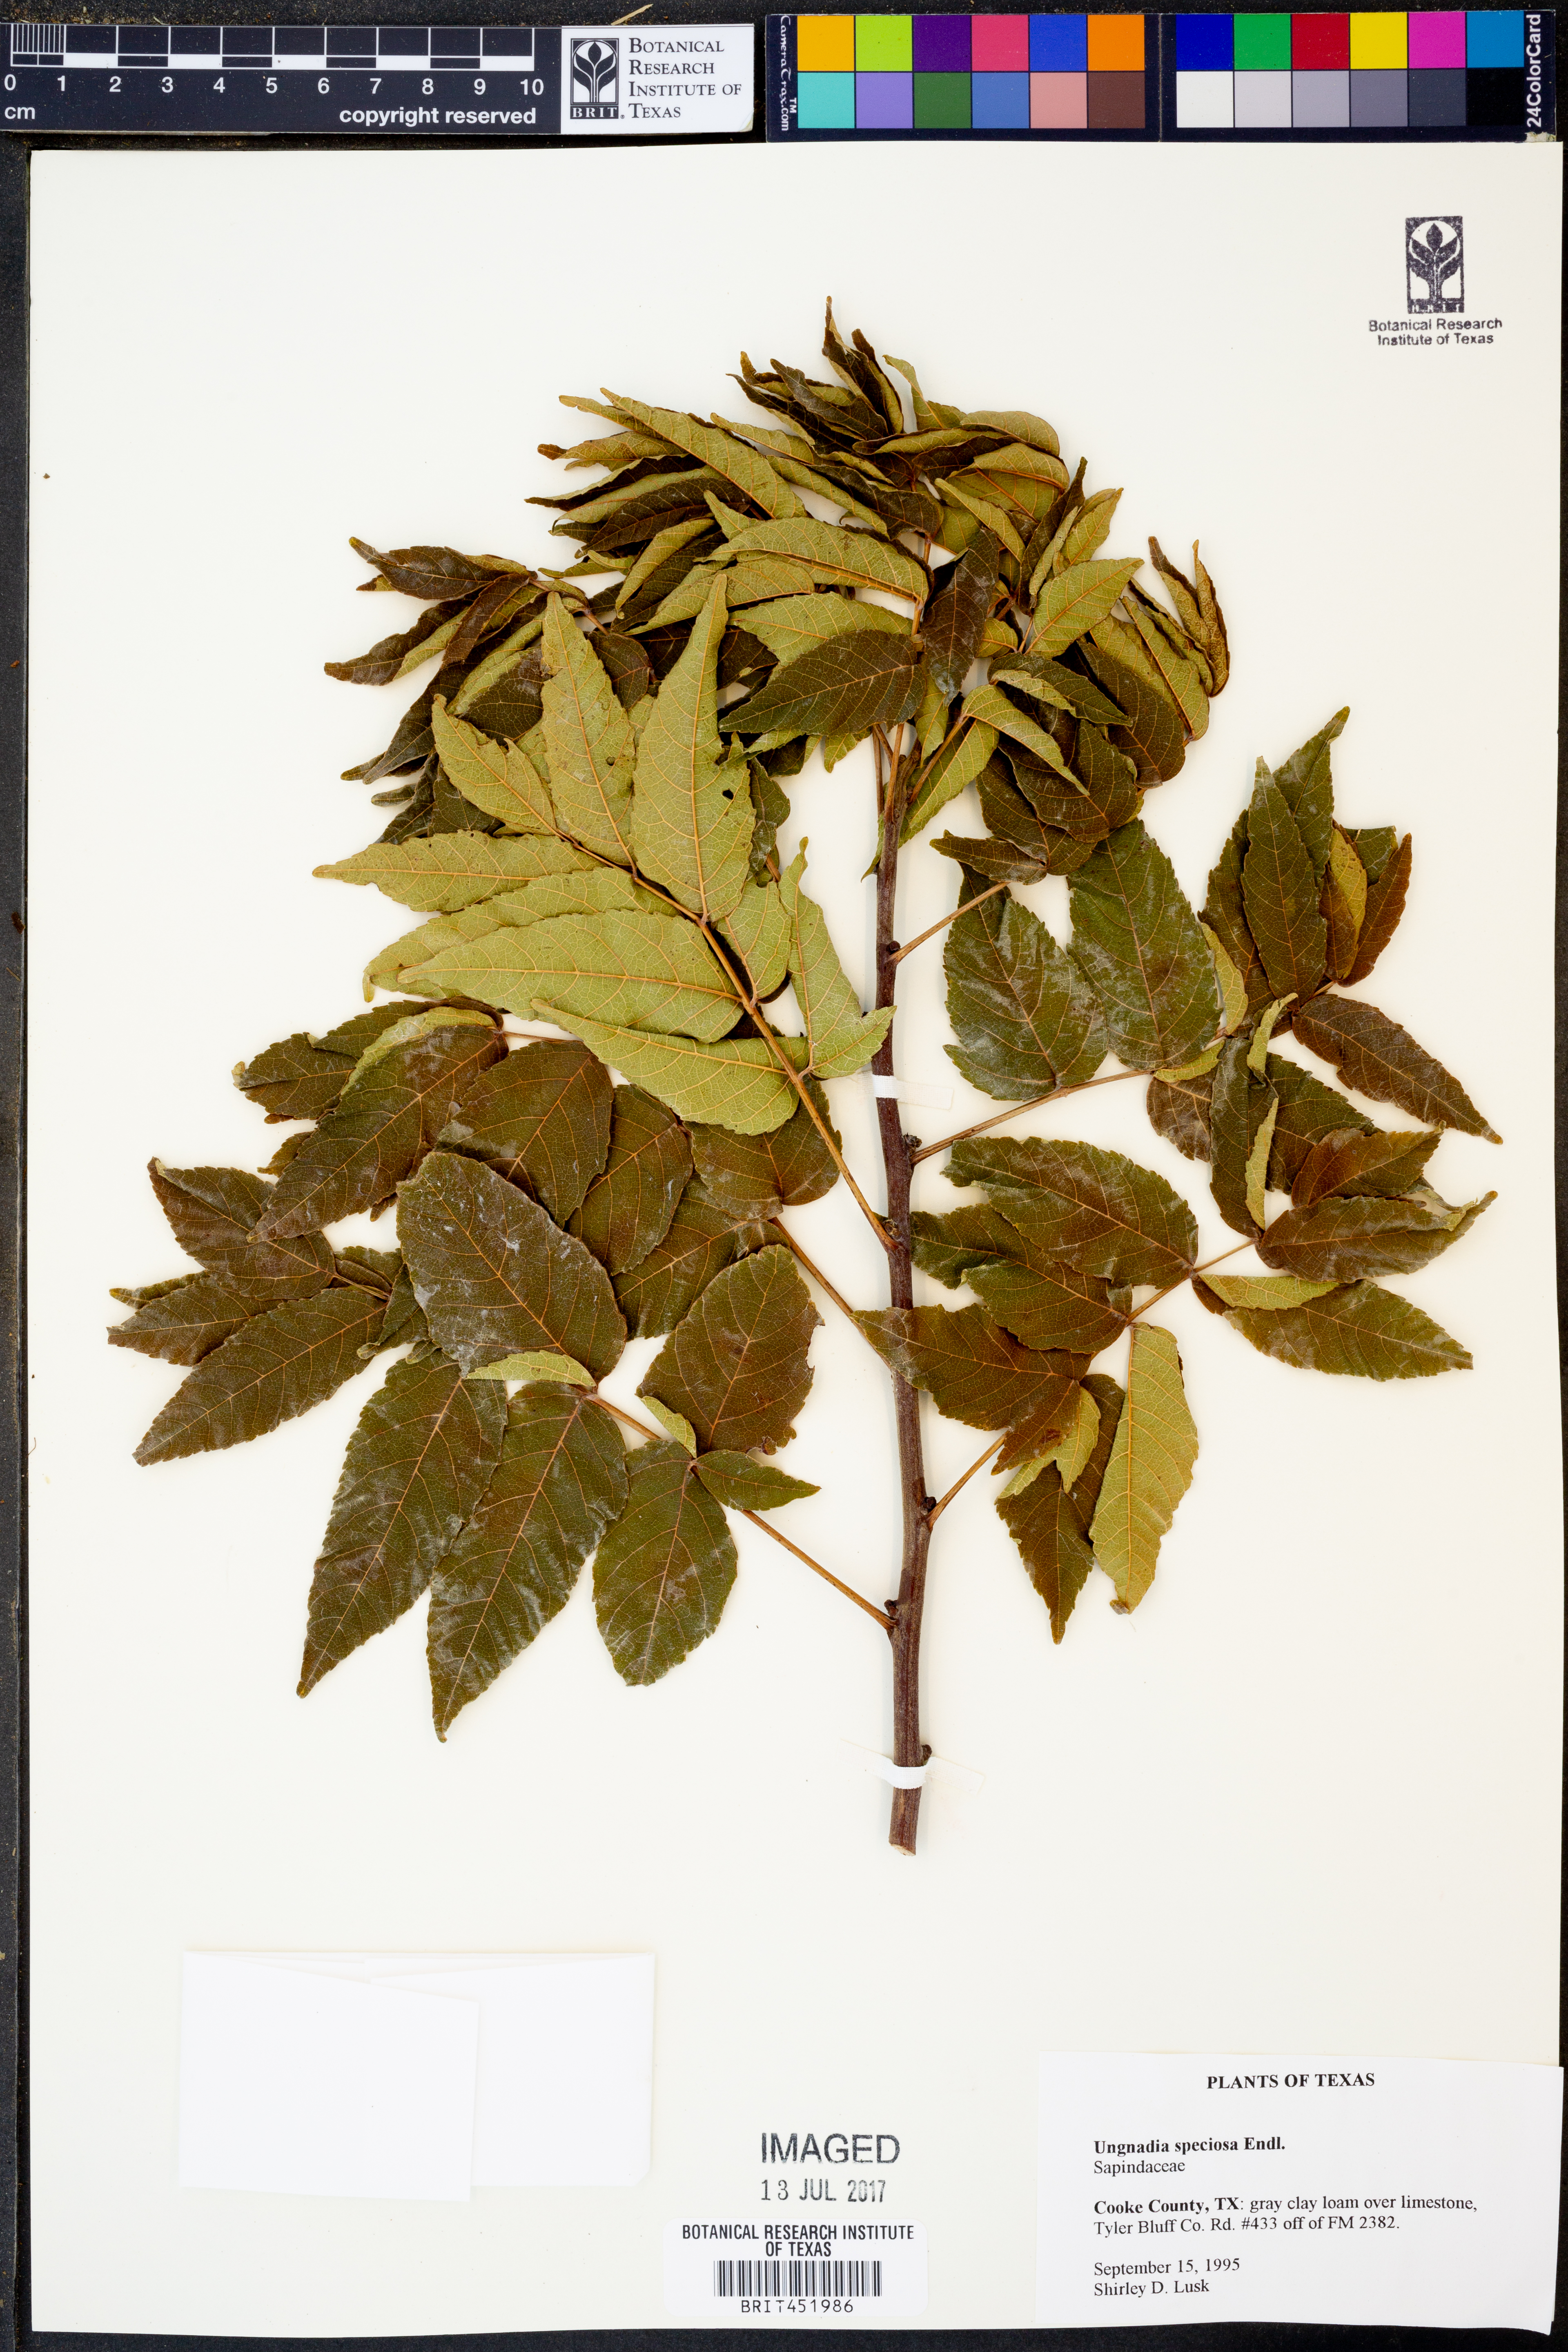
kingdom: Plantae
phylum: Tracheophyta
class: Magnoliopsida
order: Sapindales
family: Sapindaceae
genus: Ungnadia
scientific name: Ungnadia speciosa
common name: Texas-buckeye
